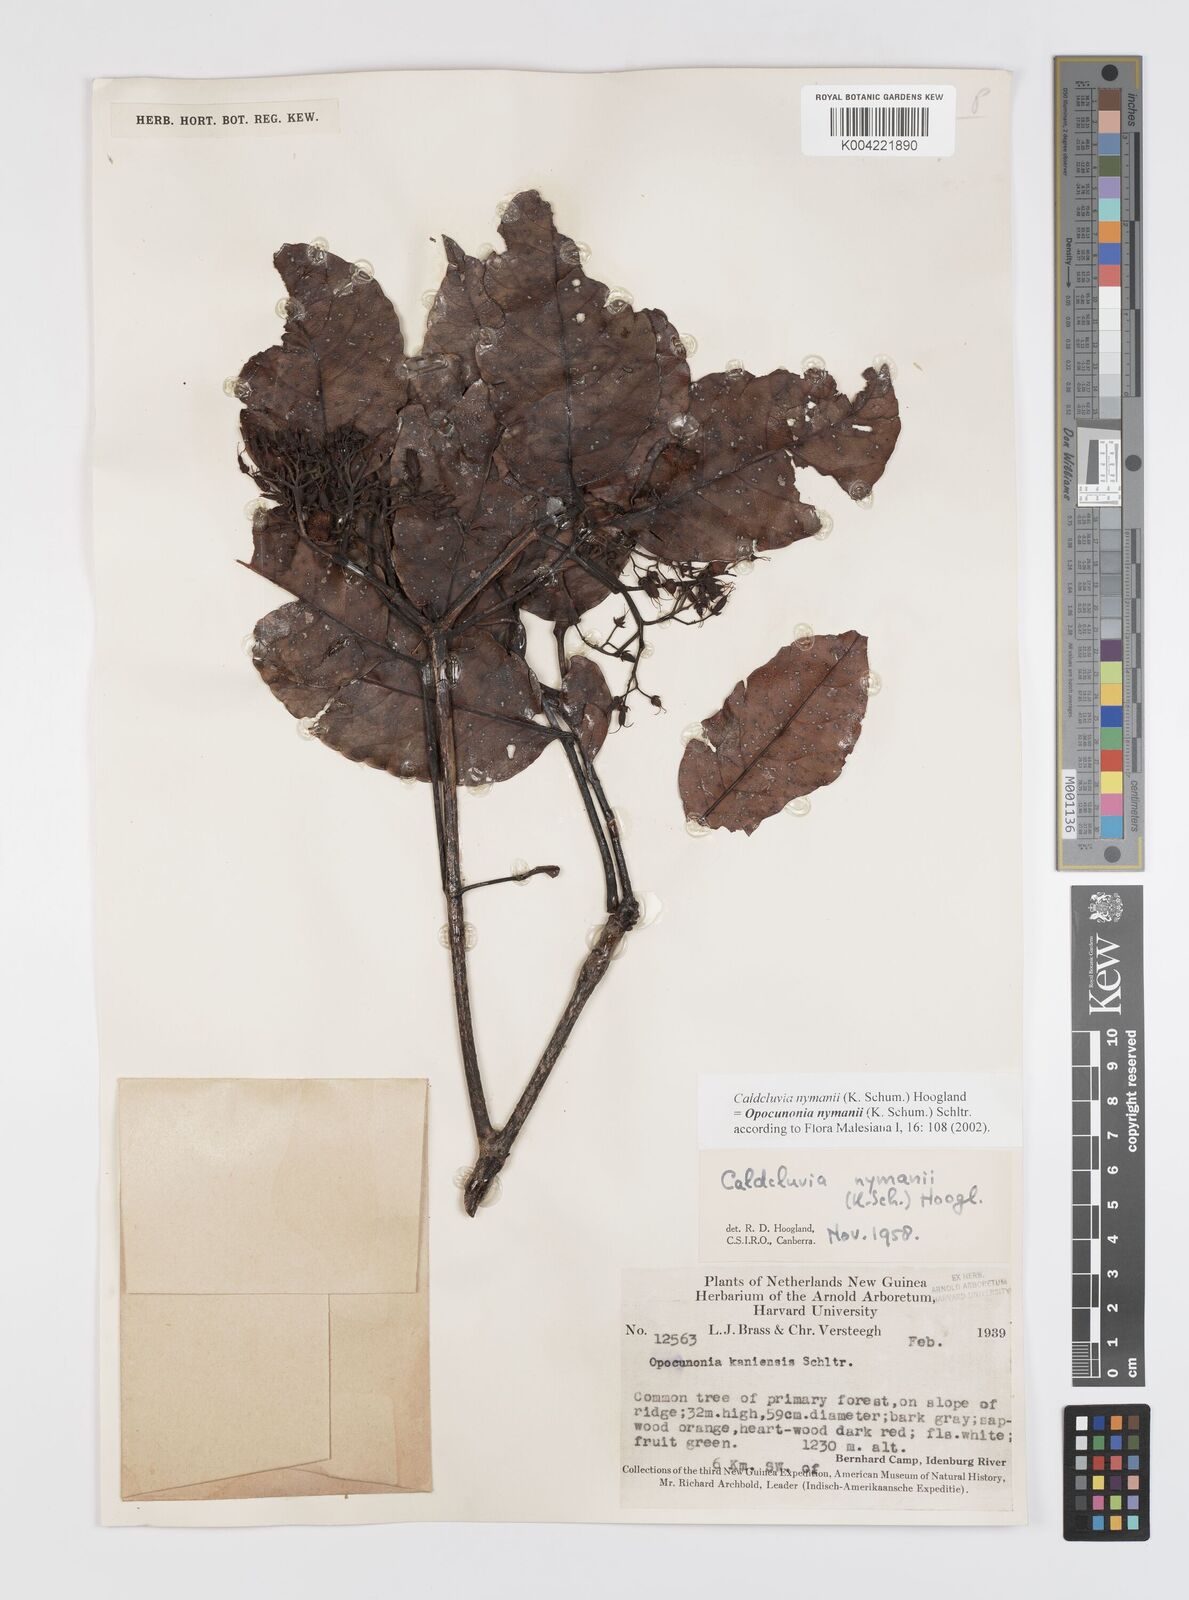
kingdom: Plantae
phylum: Tracheophyta
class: Magnoliopsida
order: Oxalidales
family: Cunoniaceae
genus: Opocunonia
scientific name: Opocunonia nymanii
